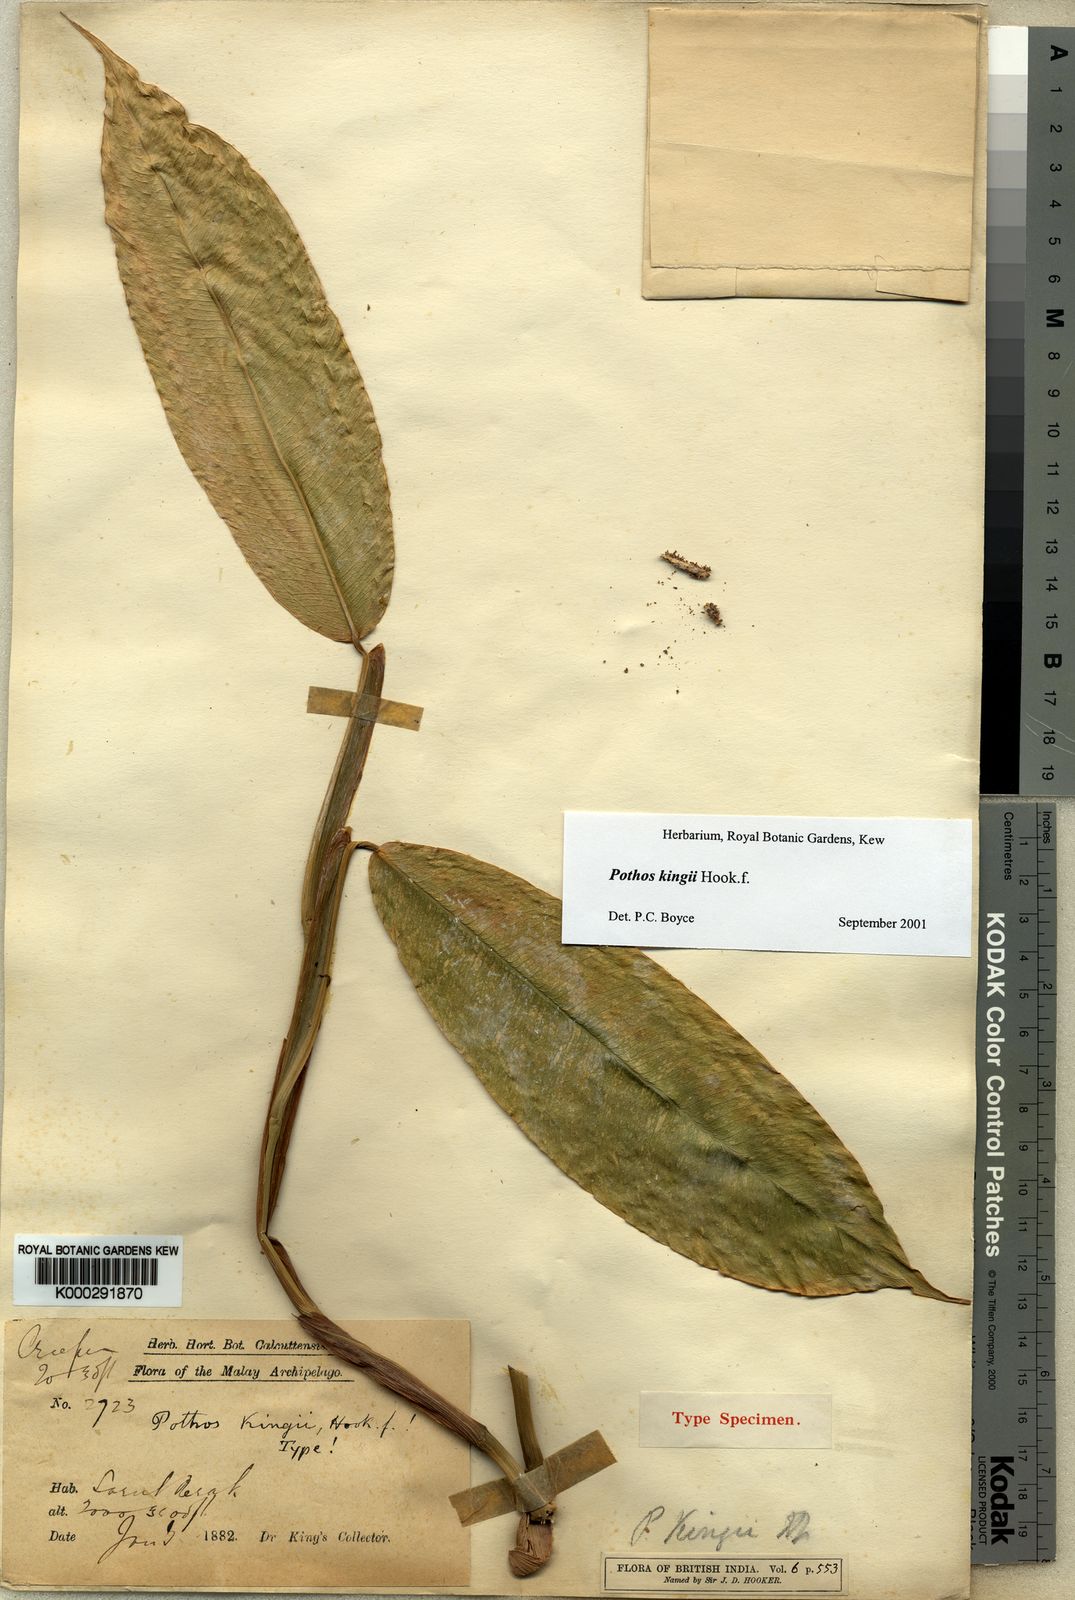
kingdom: Plantae
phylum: Tracheophyta
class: Liliopsida
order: Alismatales
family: Araceae
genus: Pothos
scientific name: Pothos kingii
